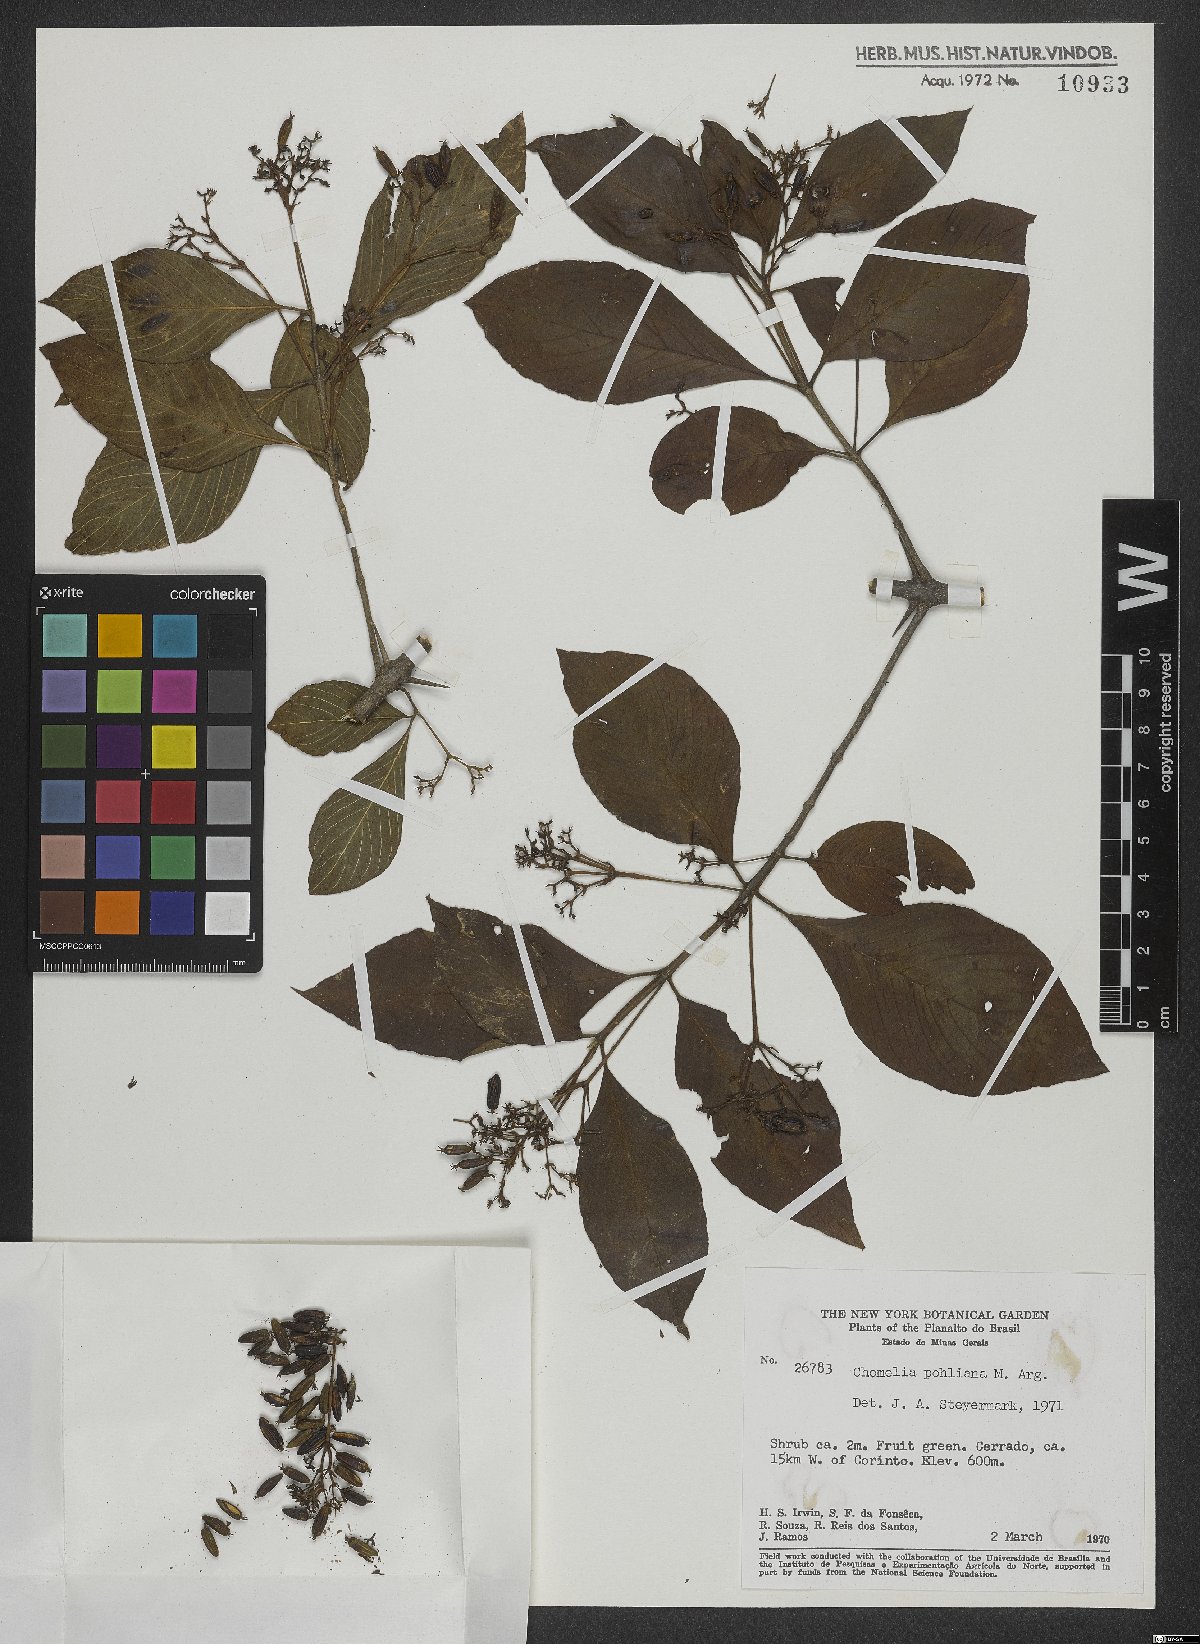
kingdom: Plantae
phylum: Tracheophyta
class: Magnoliopsida
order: Gentianales
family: Rubiaceae
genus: Chomelia
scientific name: Chomelia pohliana
